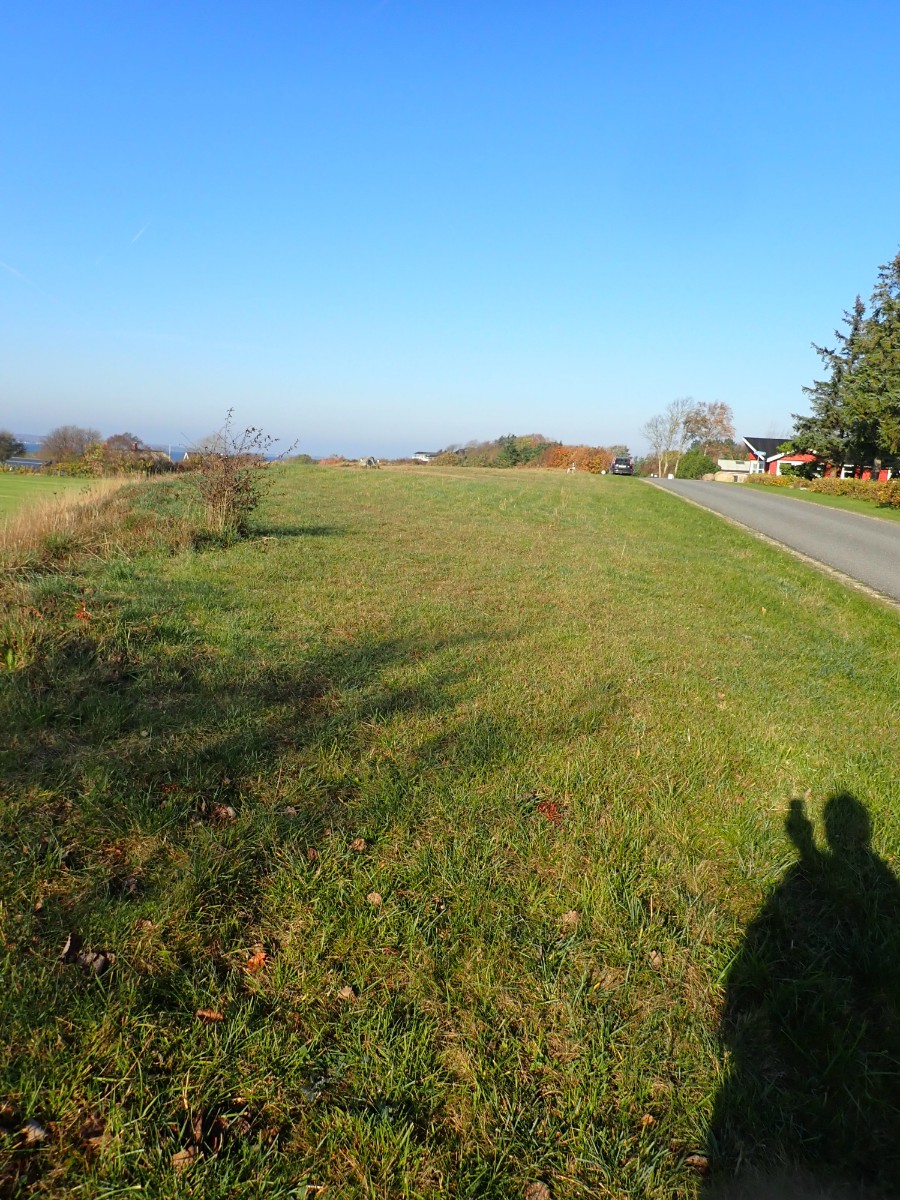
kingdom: Fungi
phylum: Basidiomycota
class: Agaricomycetes
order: Agaricales
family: Hygrophoraceae
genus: Cuphophyllus
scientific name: Cuphophyllus fornicatus
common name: gråbrun vokshat
